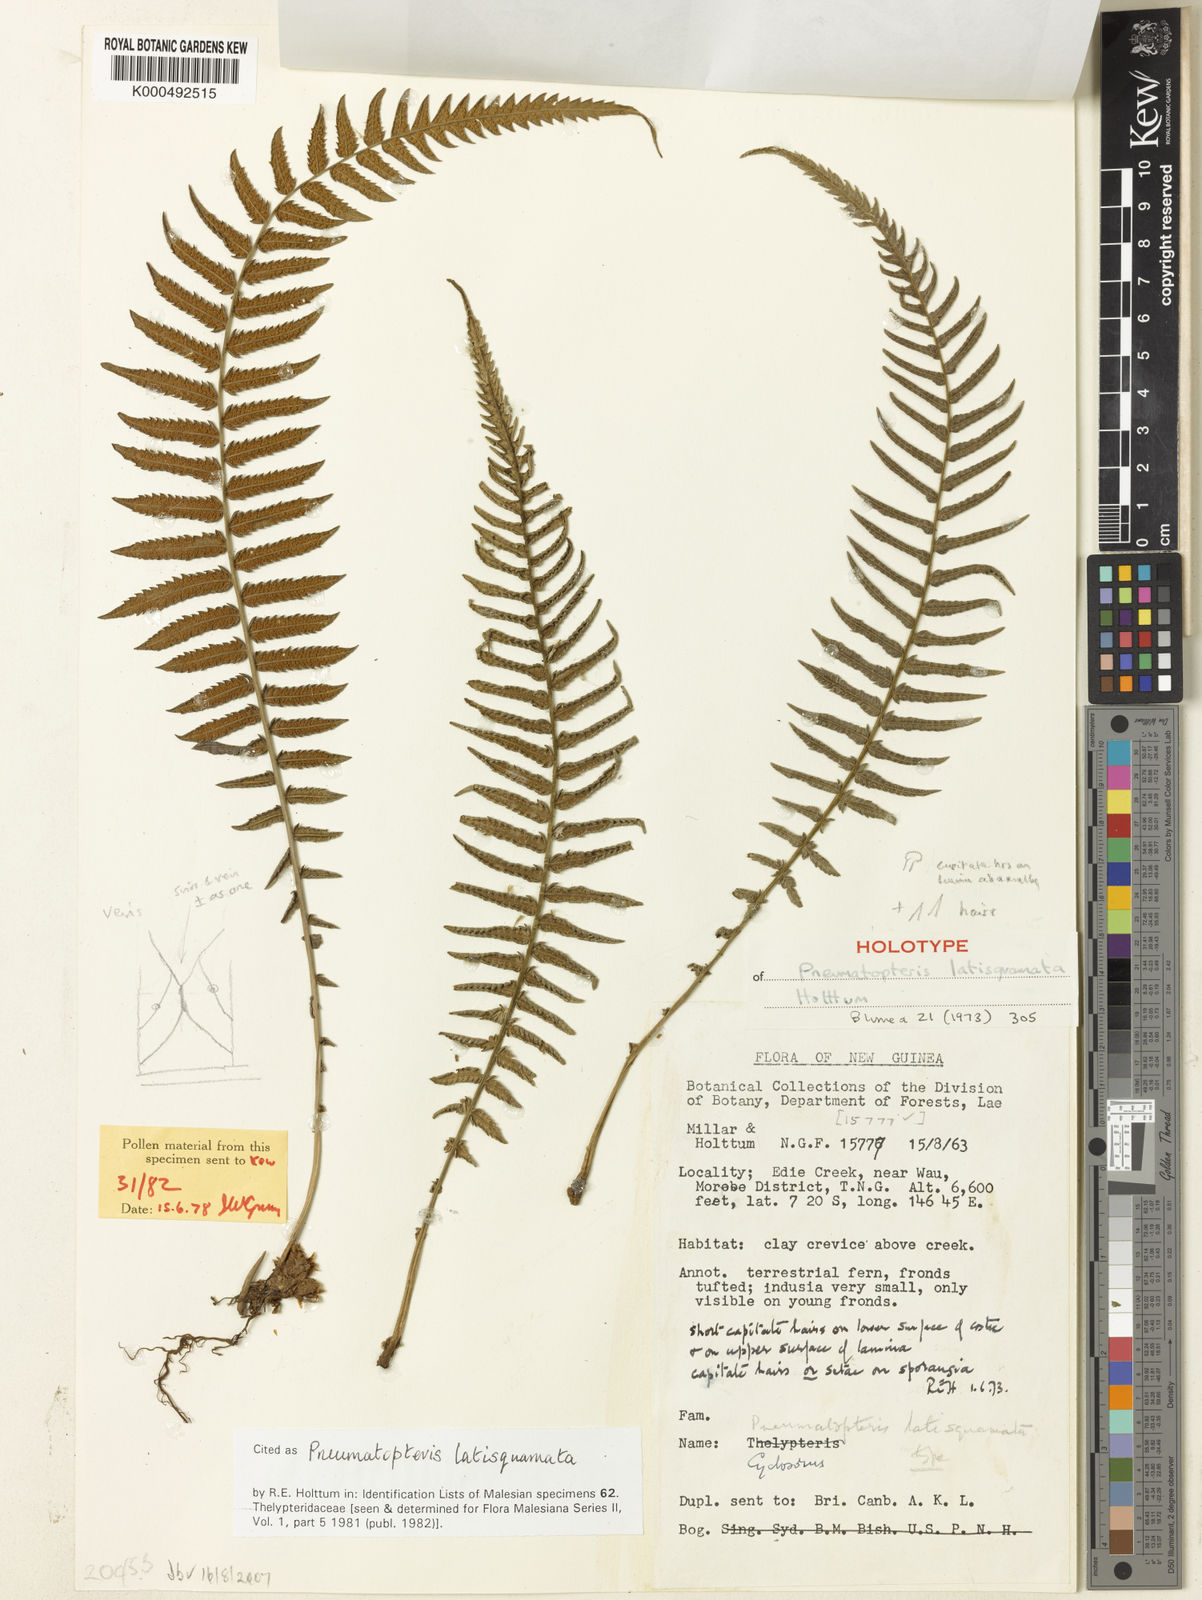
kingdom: Plantae
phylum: Tracheophyta
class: Polypodiopsida
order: Polypodiales
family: Thelypteridaceae
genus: Pneumatopteris
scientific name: Pneumatopteris latisquamata
